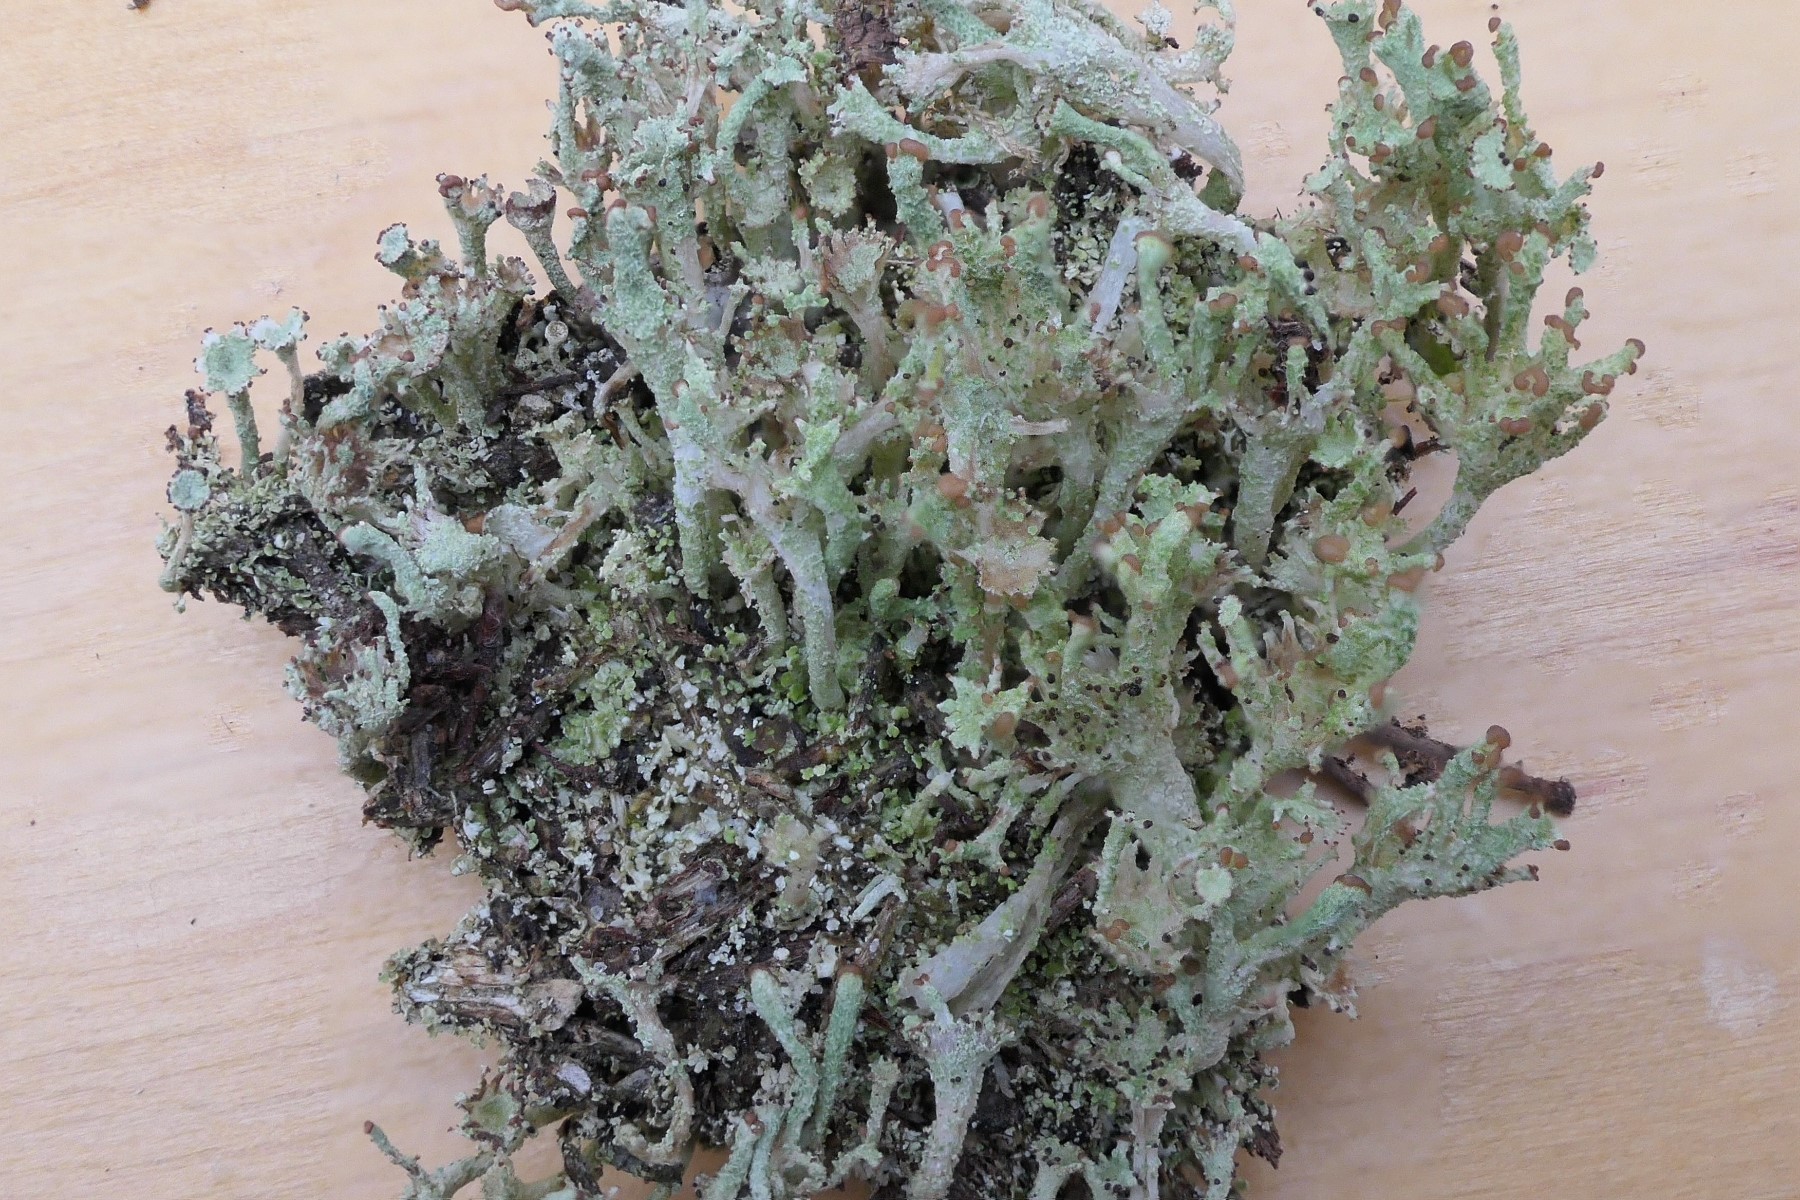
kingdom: Fungi
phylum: Ascomycota
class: Lecanoromycetes
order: Lecanorales
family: Cladoniaceae
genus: Cladonia
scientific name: Cladonia ramulosa
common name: kliddet bægerlav
